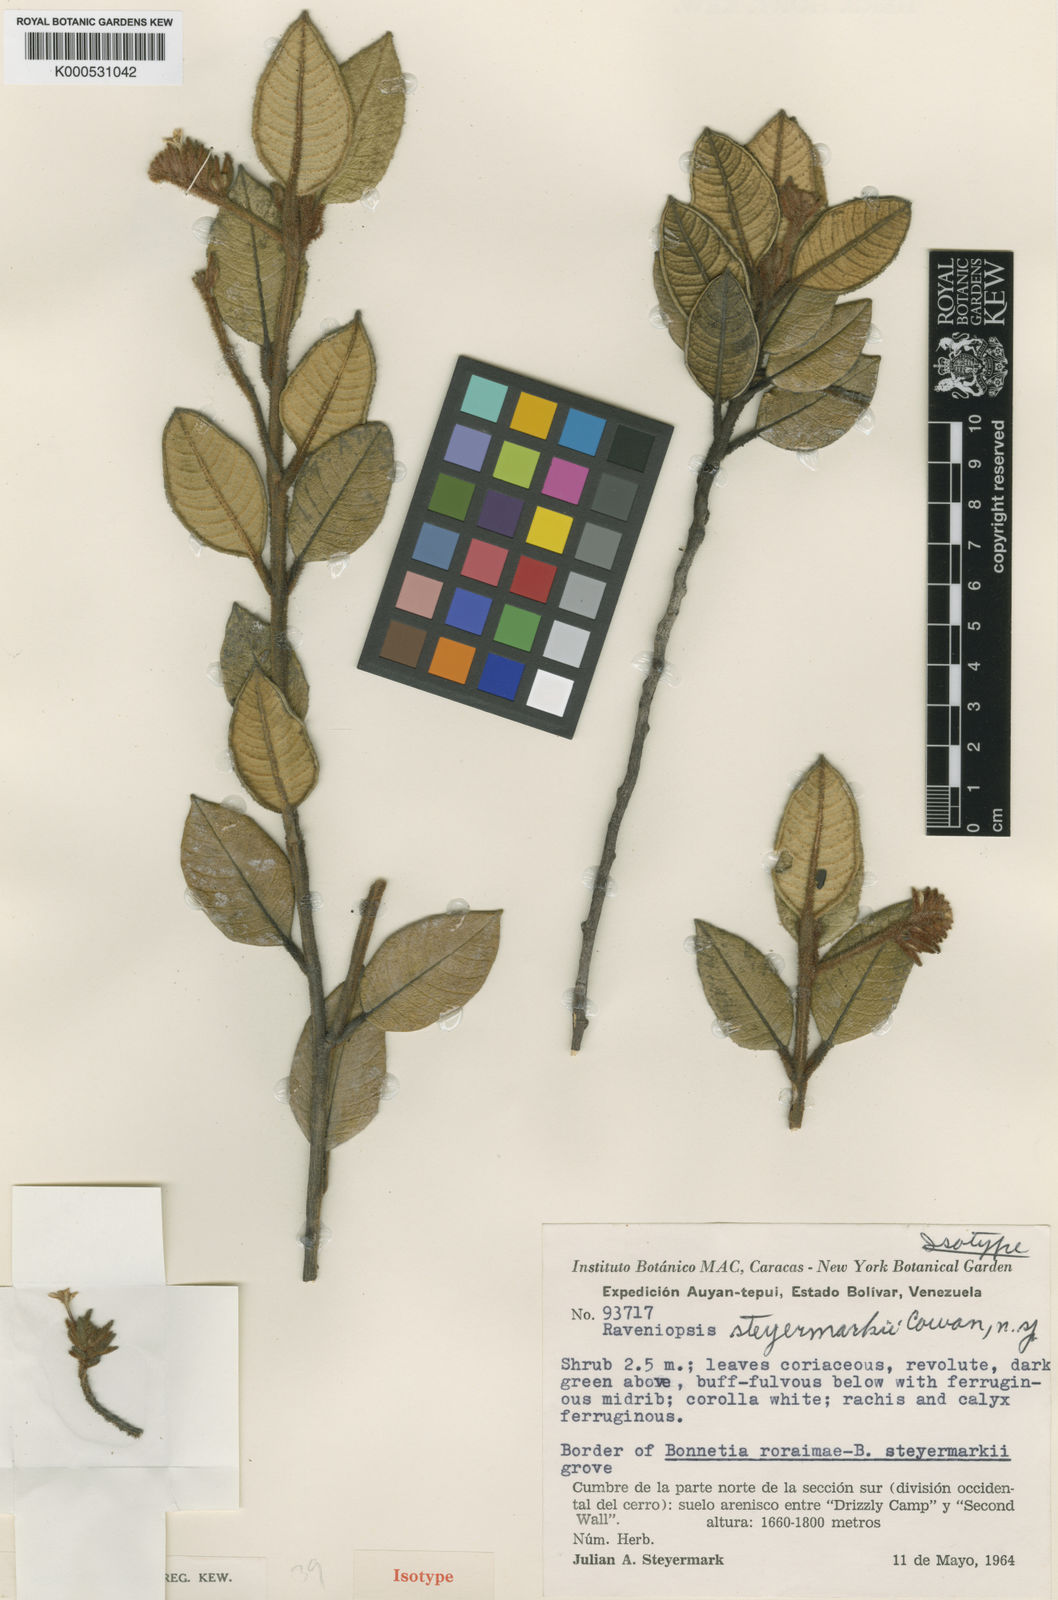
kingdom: Plantae
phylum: Tracheophyta
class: Magnoliopsida
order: Sapindales
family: Rutaceae
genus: Raveniopsis
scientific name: Raveniopsis steyermarkii
